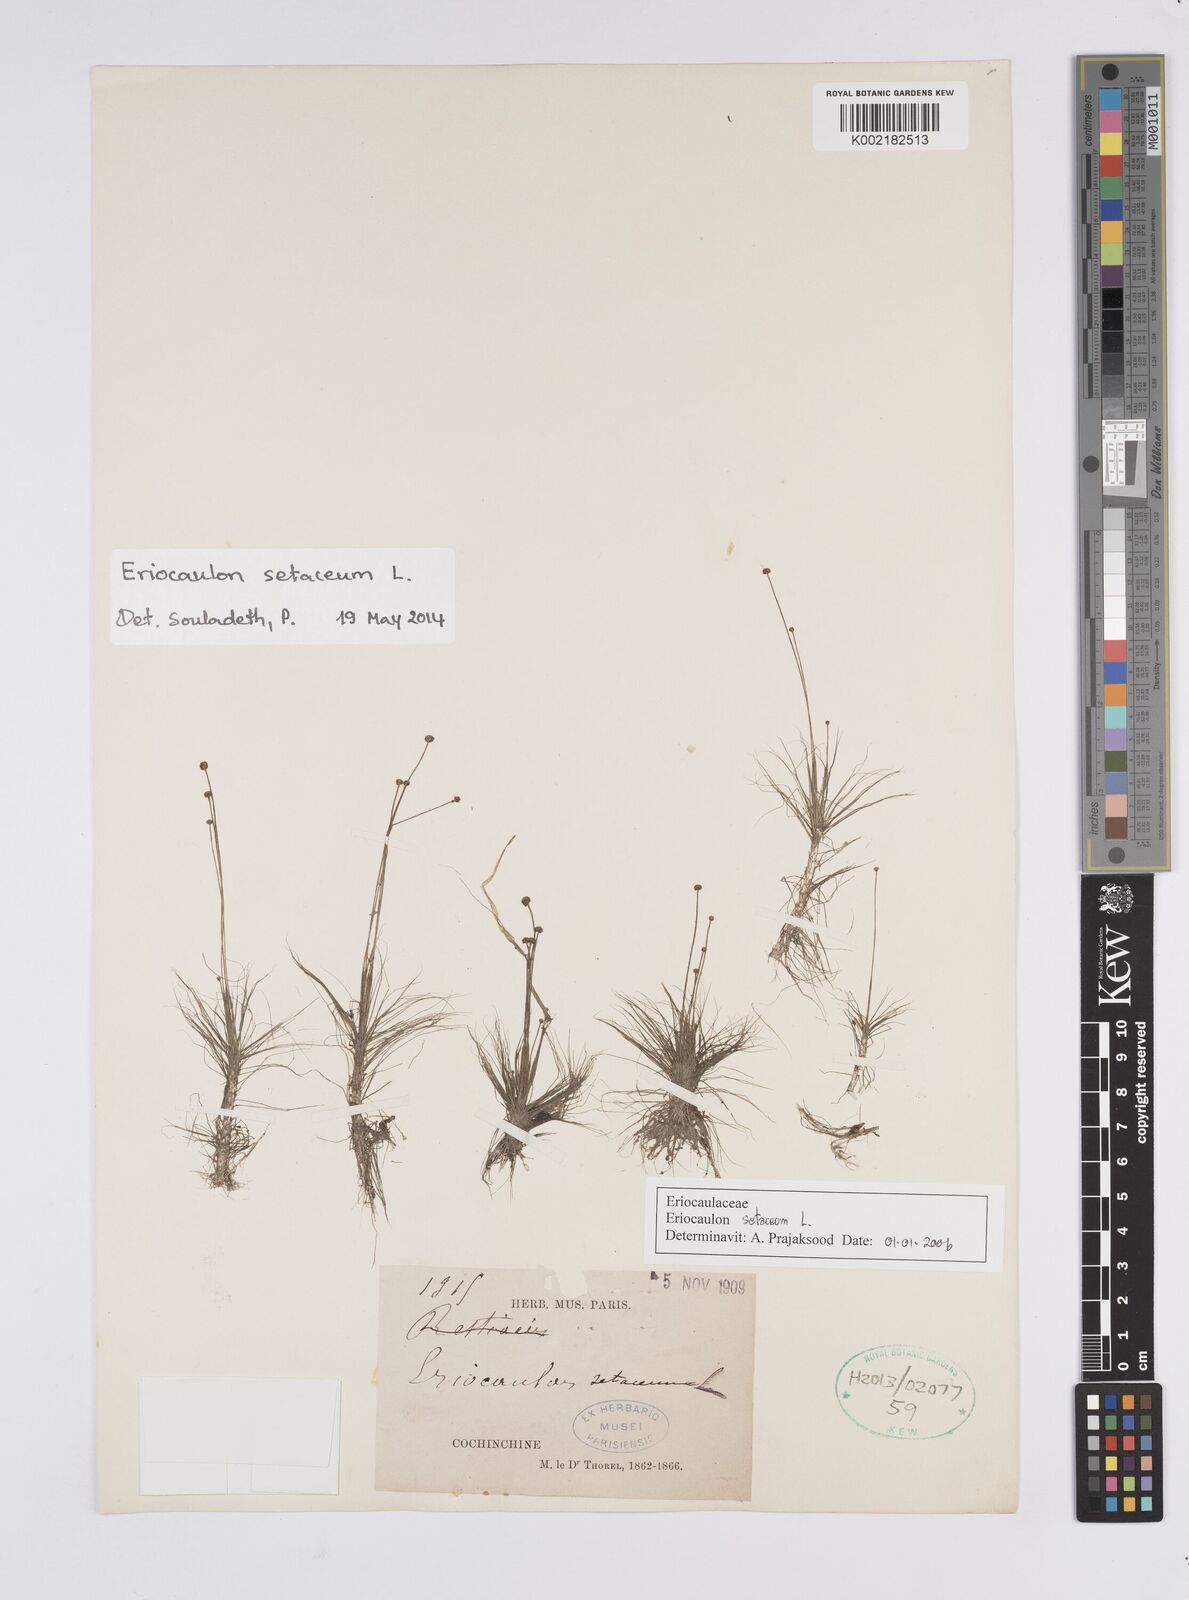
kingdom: Plantae
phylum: Tracheophyta
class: Liliopsida
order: Poales
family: Eriocaulaceae
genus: Eriocaulon
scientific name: Eriocaulon setaceum
